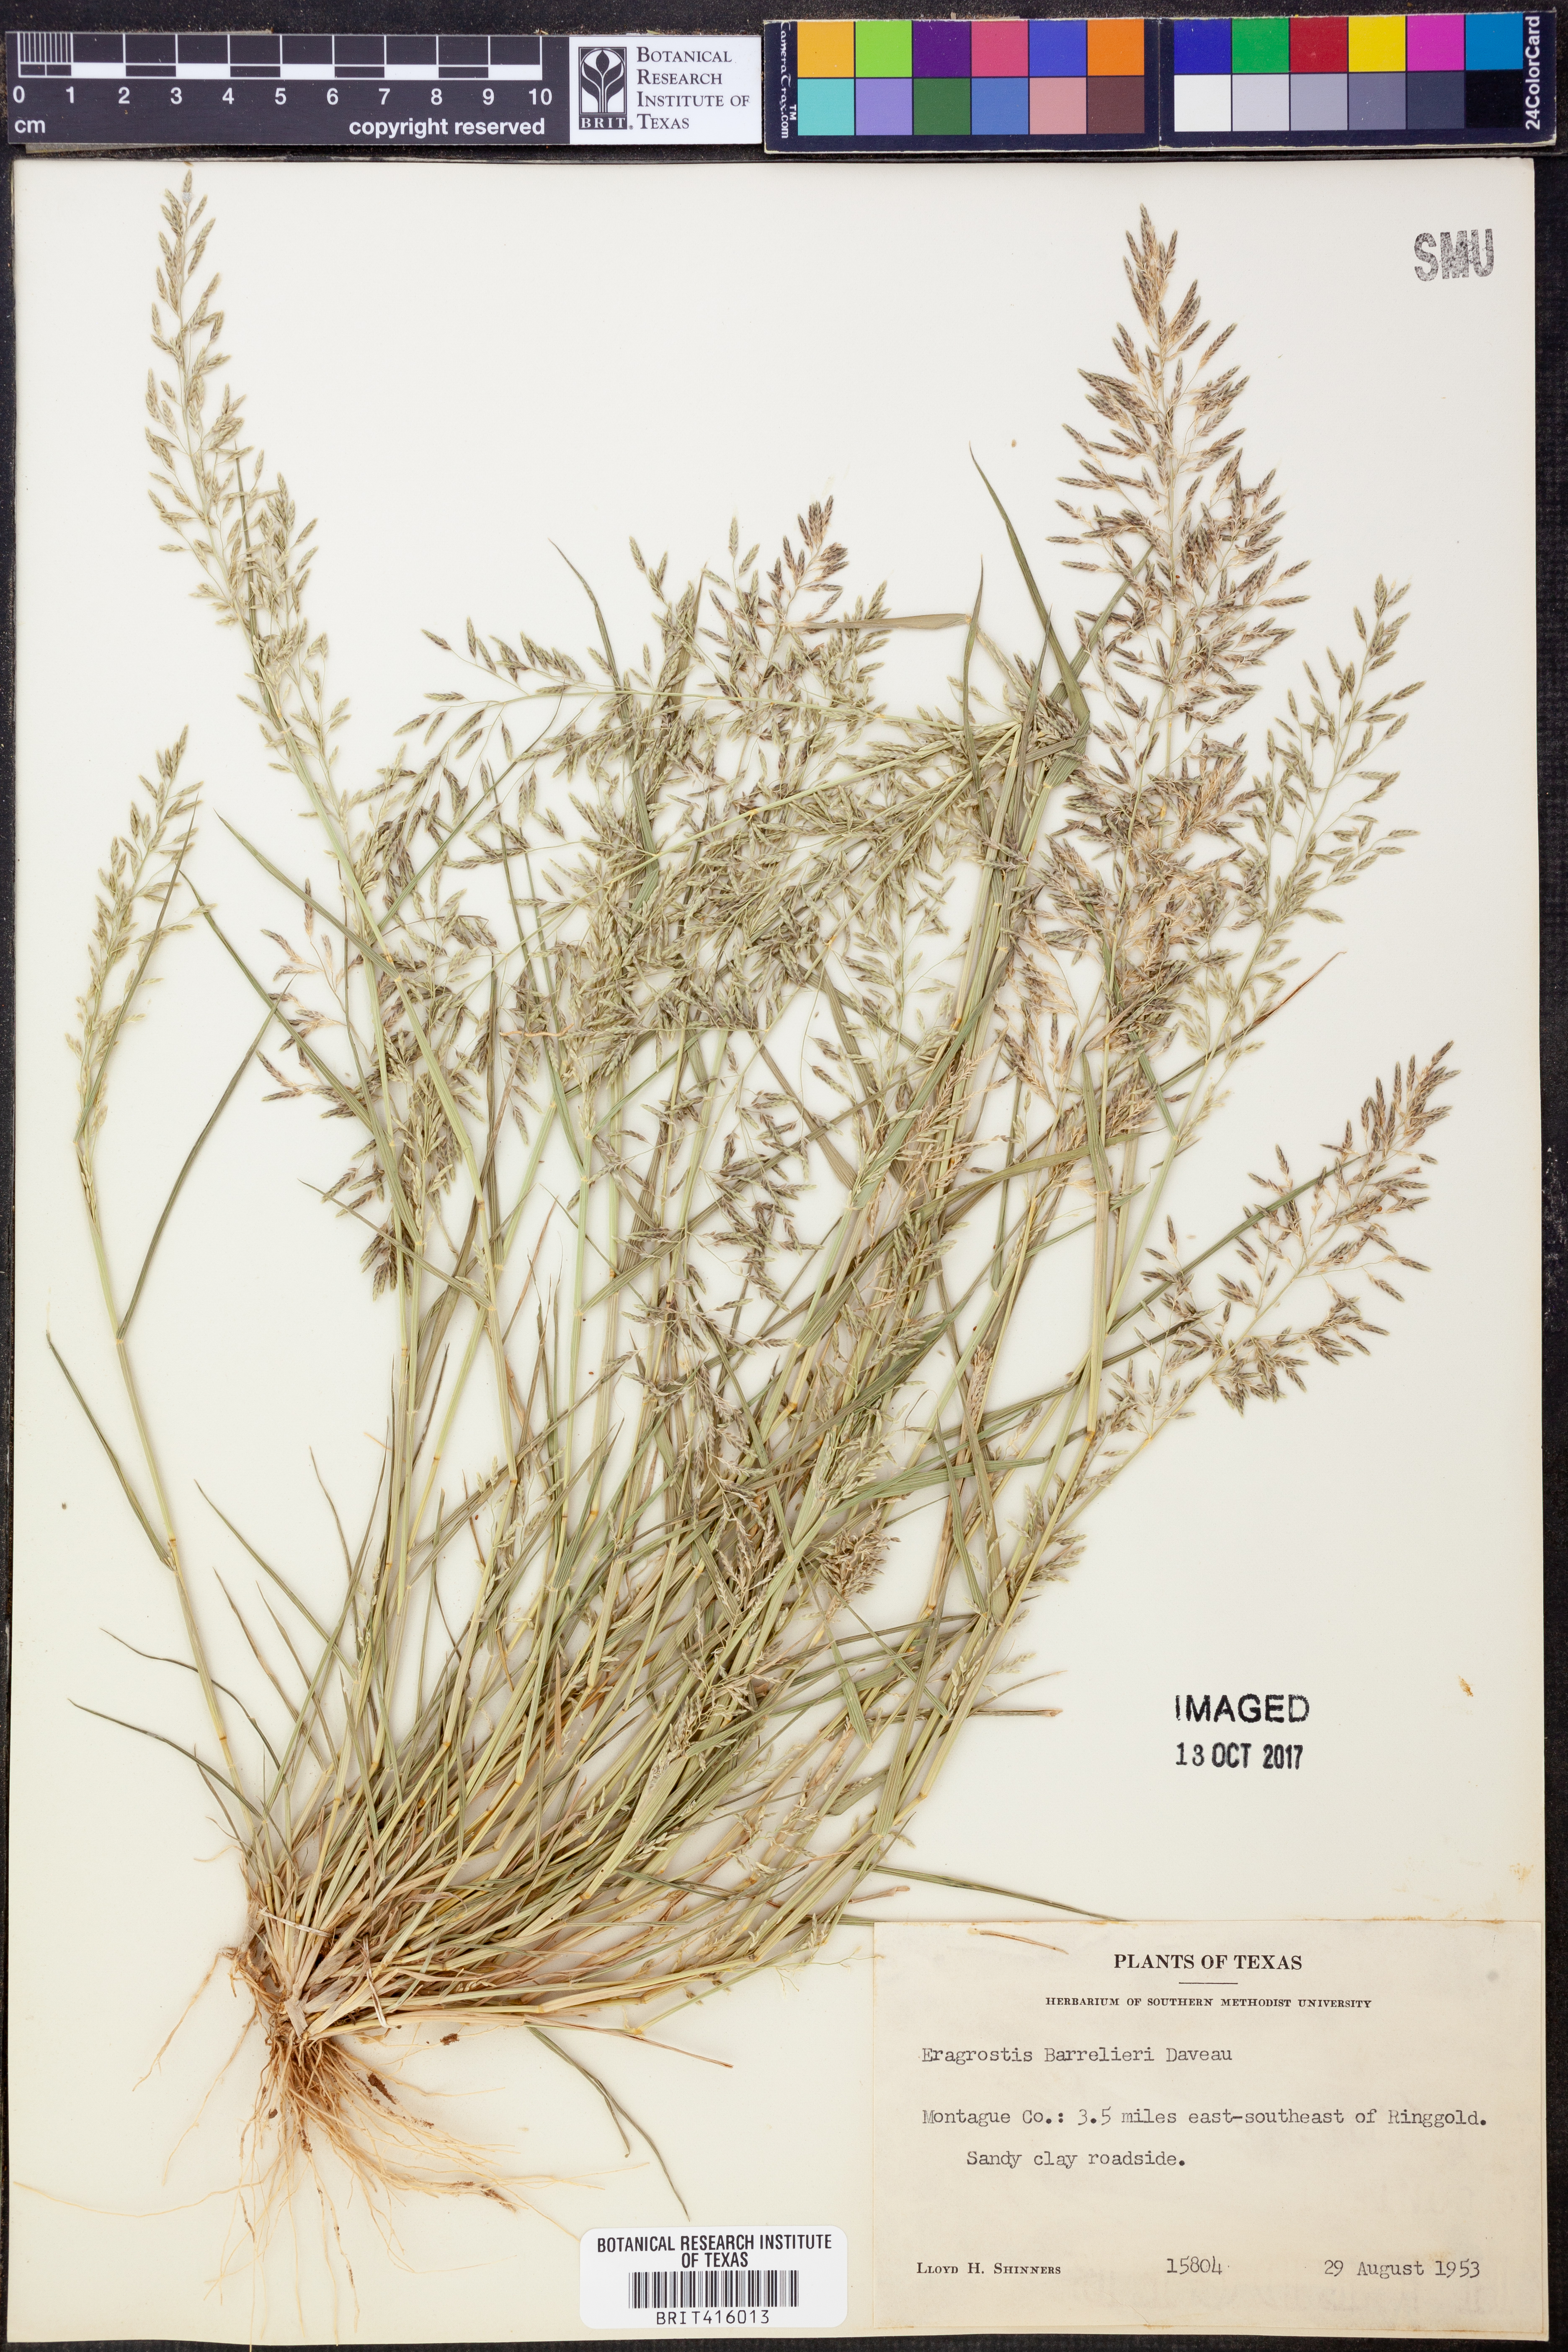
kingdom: Plantae
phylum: Tracheophyta
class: Liliopsida
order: Poales
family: Poaceae
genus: Eragrostis
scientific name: Eragrostis barrelieri
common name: Mediterranean lovegrass
